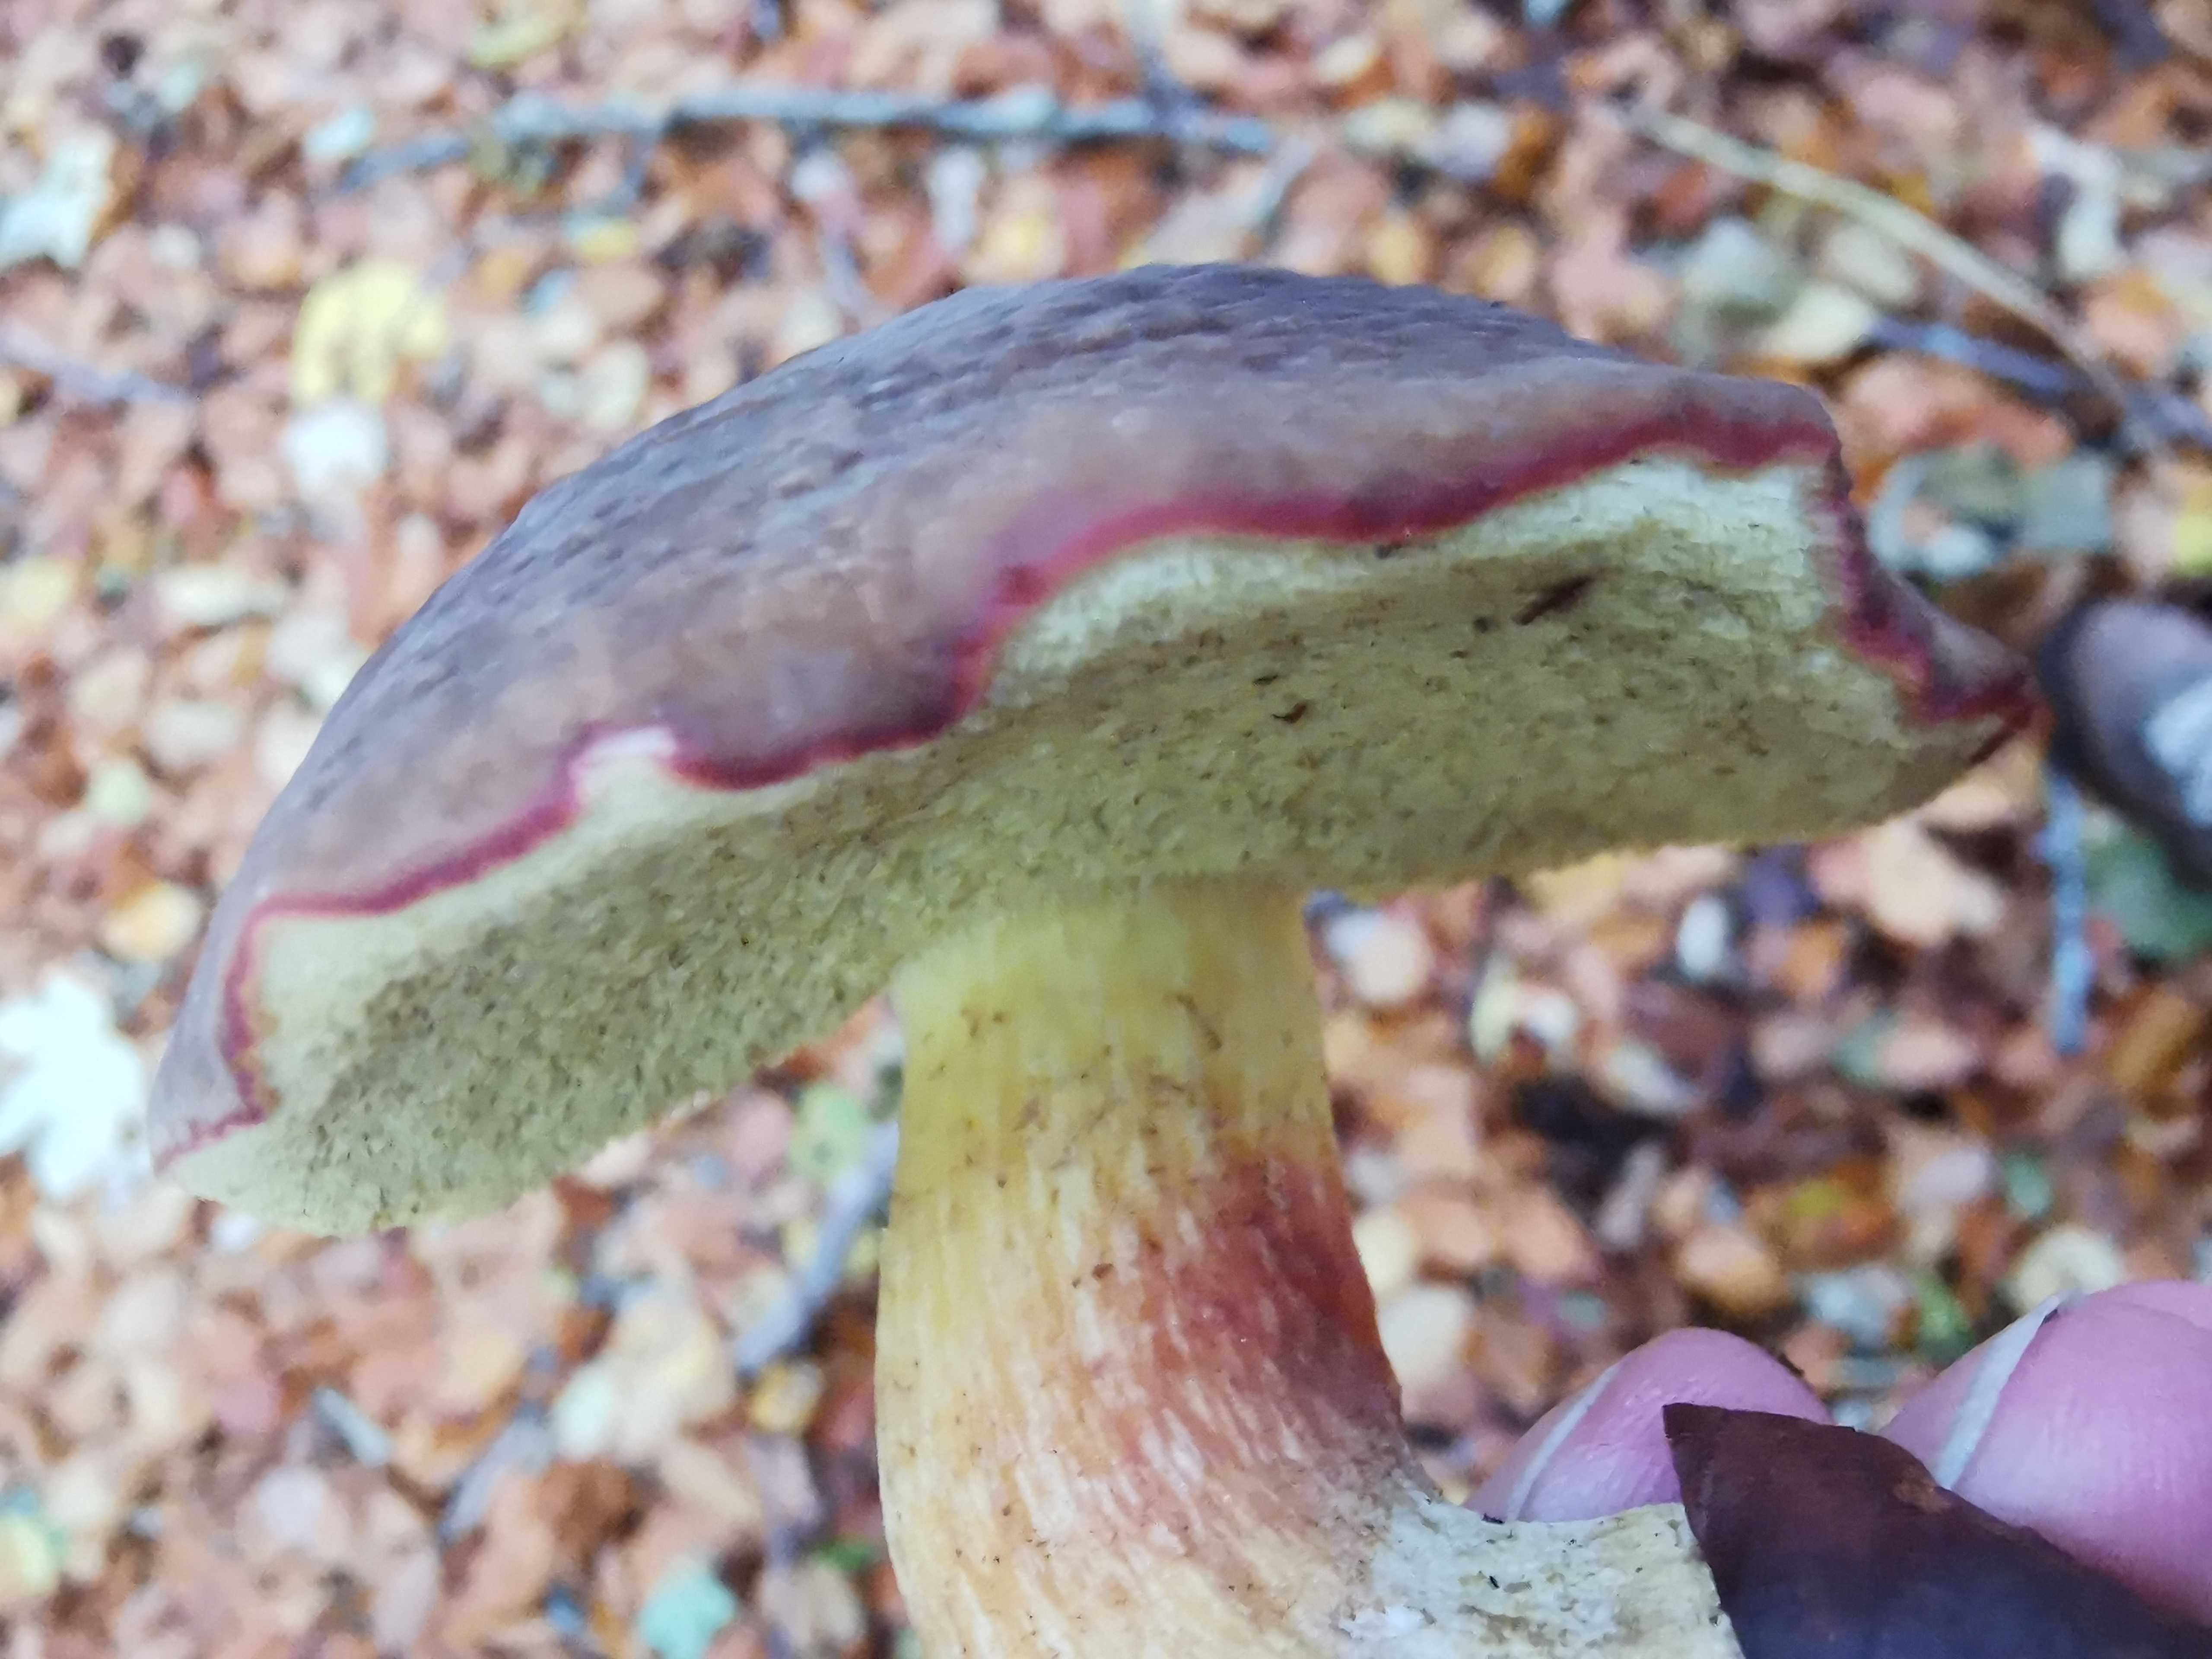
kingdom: Fungi
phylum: Basidiomycota
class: Agaricomycetes
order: Boletales
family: Boletaceae
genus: Xerocomellus
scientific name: Xerocomellus pruinatus
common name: dugget rørhat
